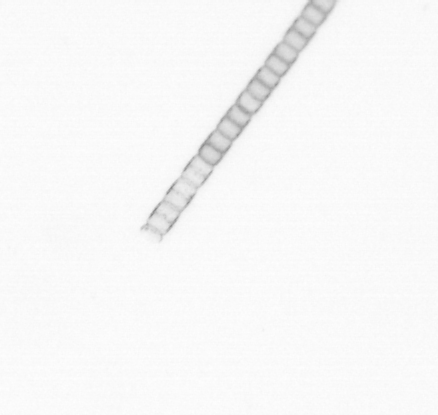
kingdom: Chromista
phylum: Ochrophyta
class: Bacillariophyceae
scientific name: Bacillariophyceae
